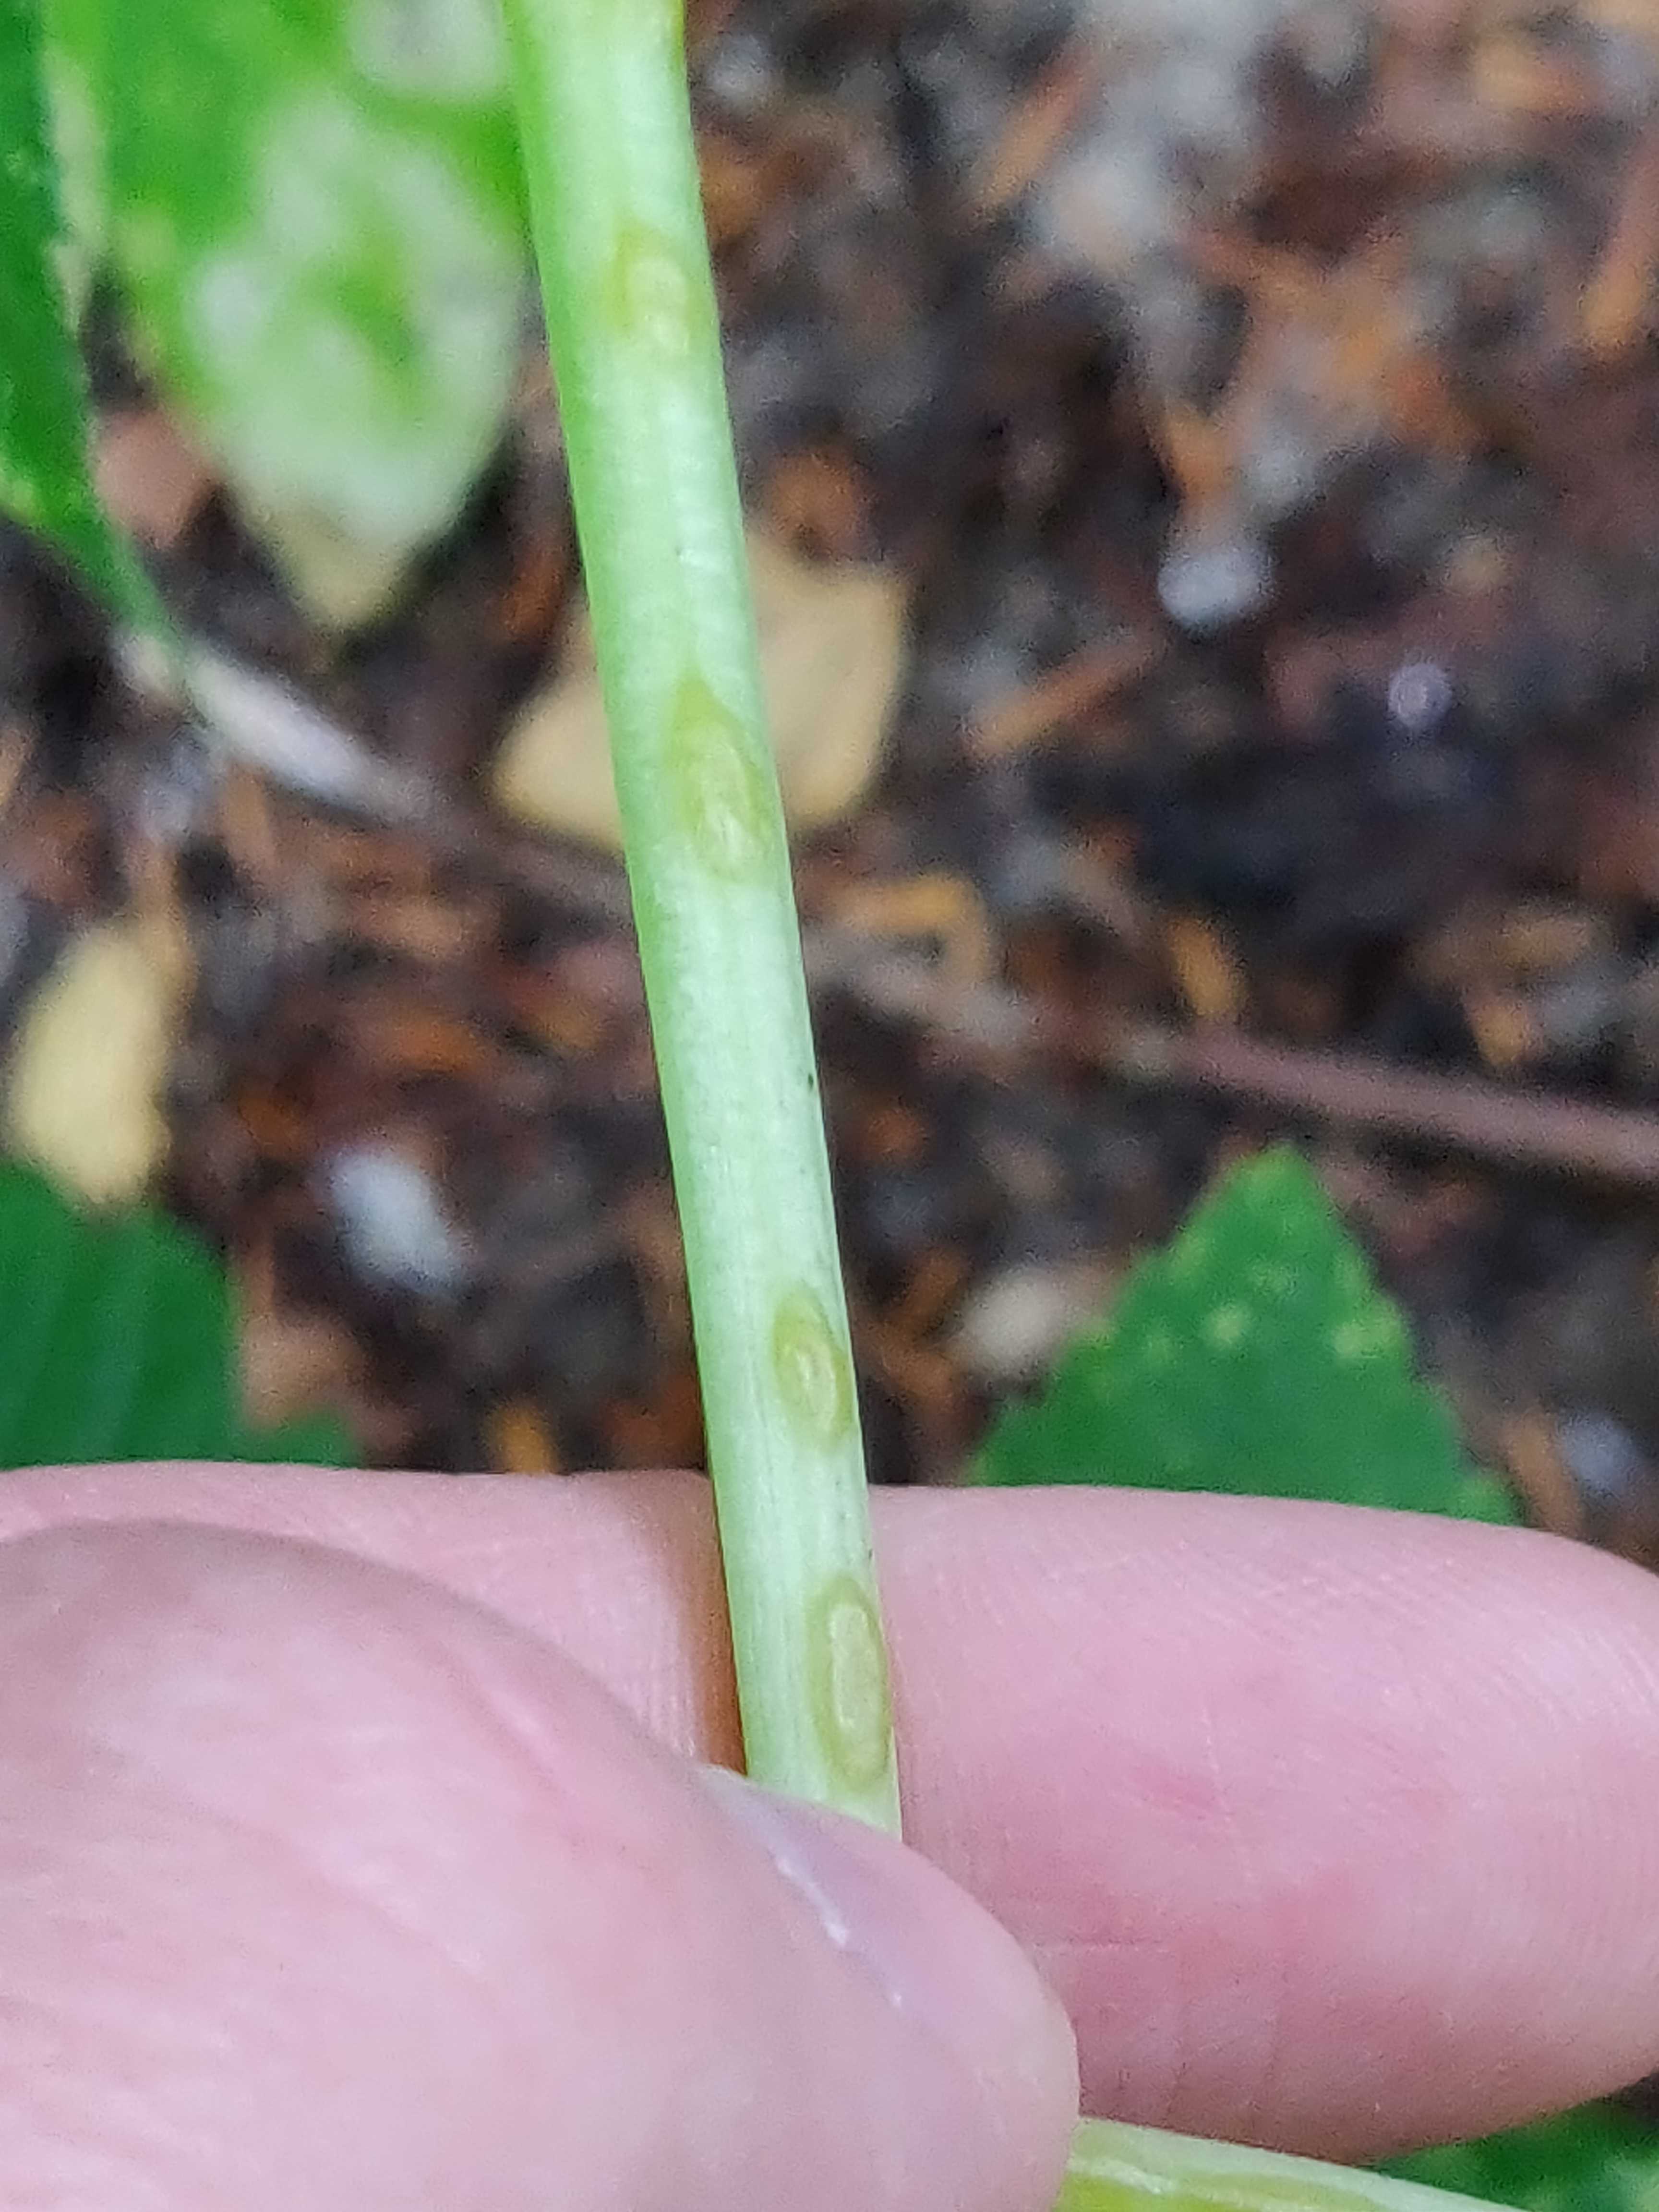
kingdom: Fungi
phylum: Ascomycota
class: Taphrinomycetes
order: Taphrinales
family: Taphrinaceae
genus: Protomyces
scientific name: Protomyces macrosporus
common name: skvalderkål-vablesæk
